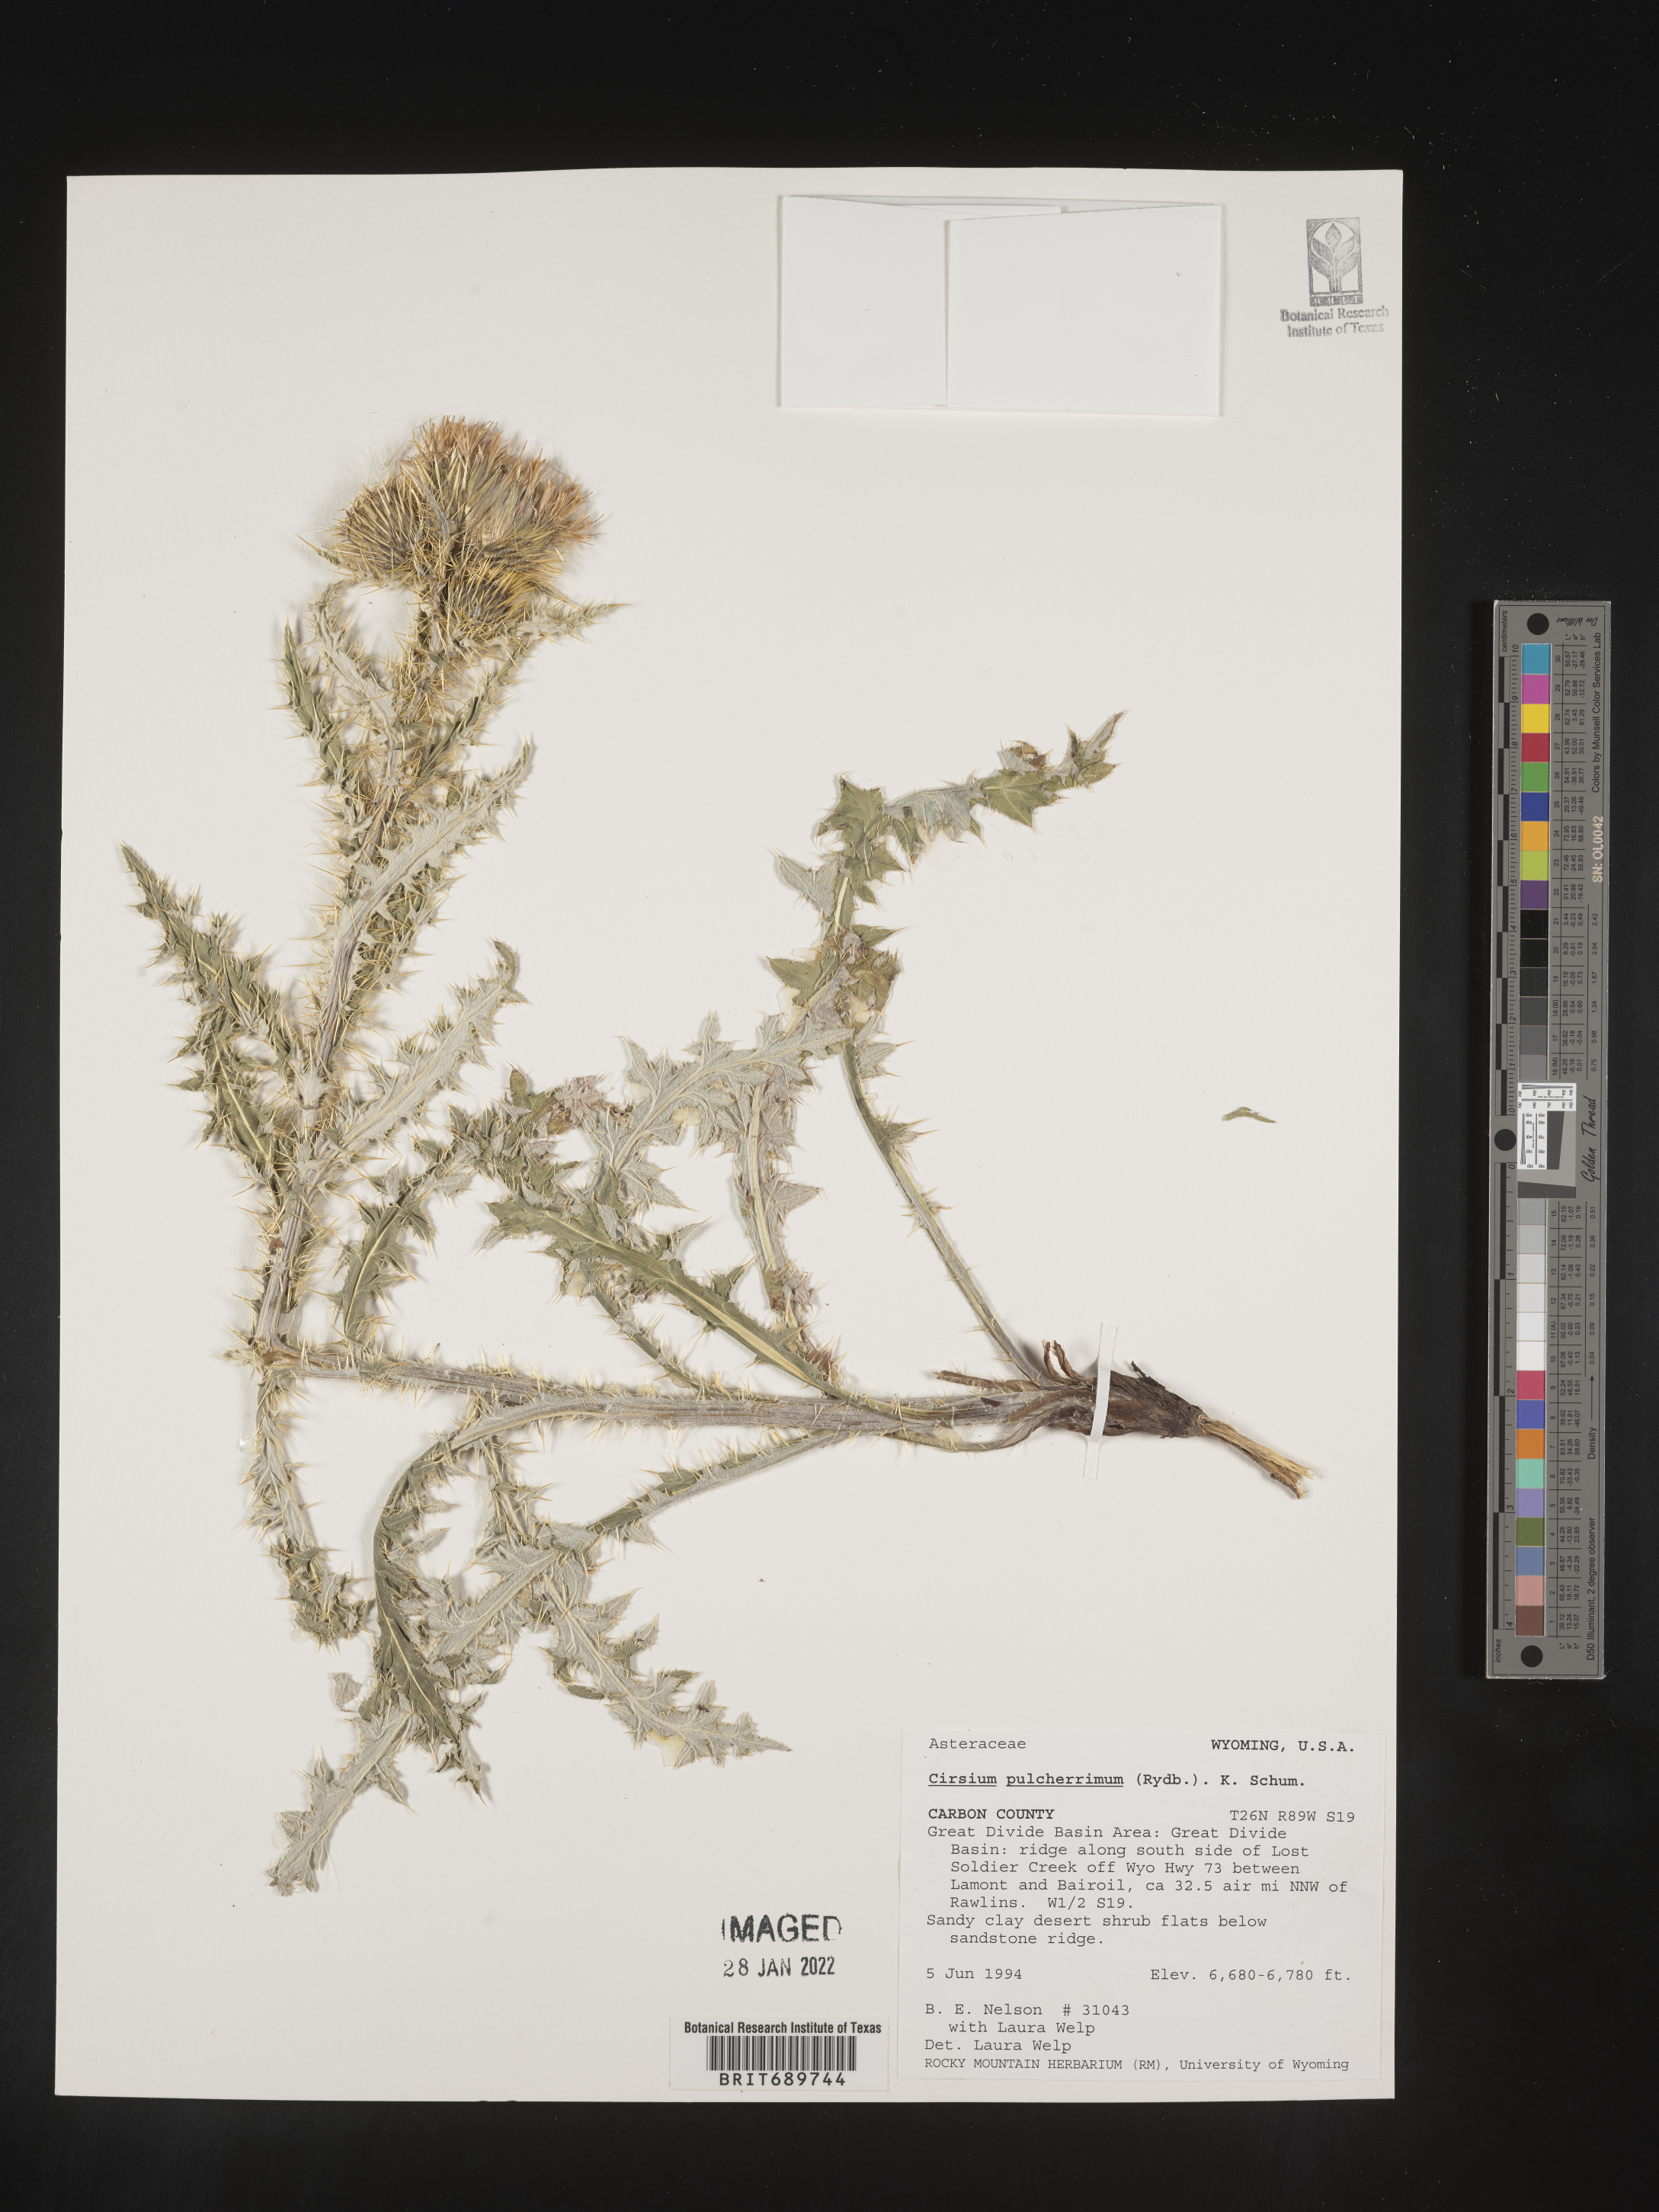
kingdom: Plantae
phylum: Tracheophyta
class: Magnoliopsida
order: Asterales
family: Asteraceae
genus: Cirsium
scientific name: Cirsium occidentale
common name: Western thistle
